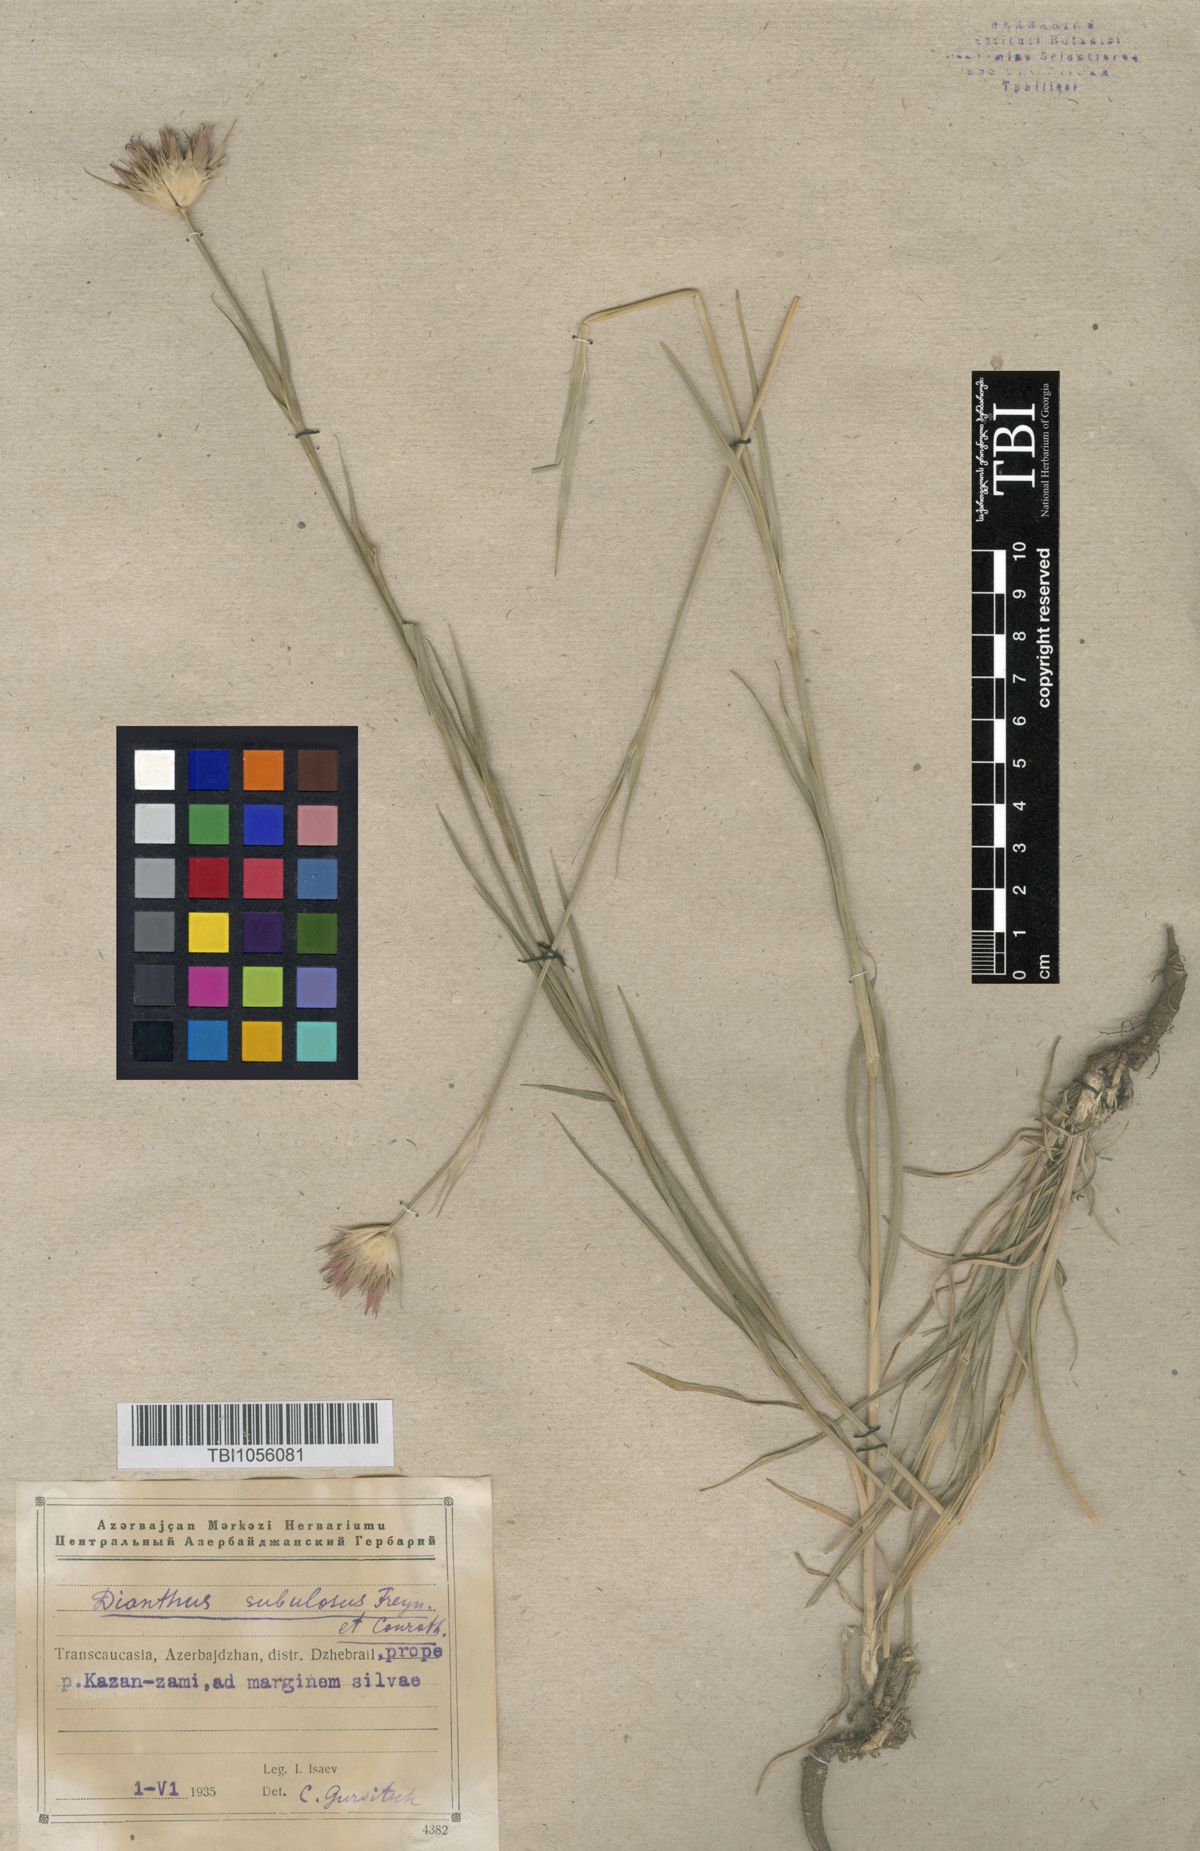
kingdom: Plantae
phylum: Tracheophyta
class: Magnoliopsida
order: Caryophyllales
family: Caryophyllaceae
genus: Dianthus
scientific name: Dianthus subulosus
